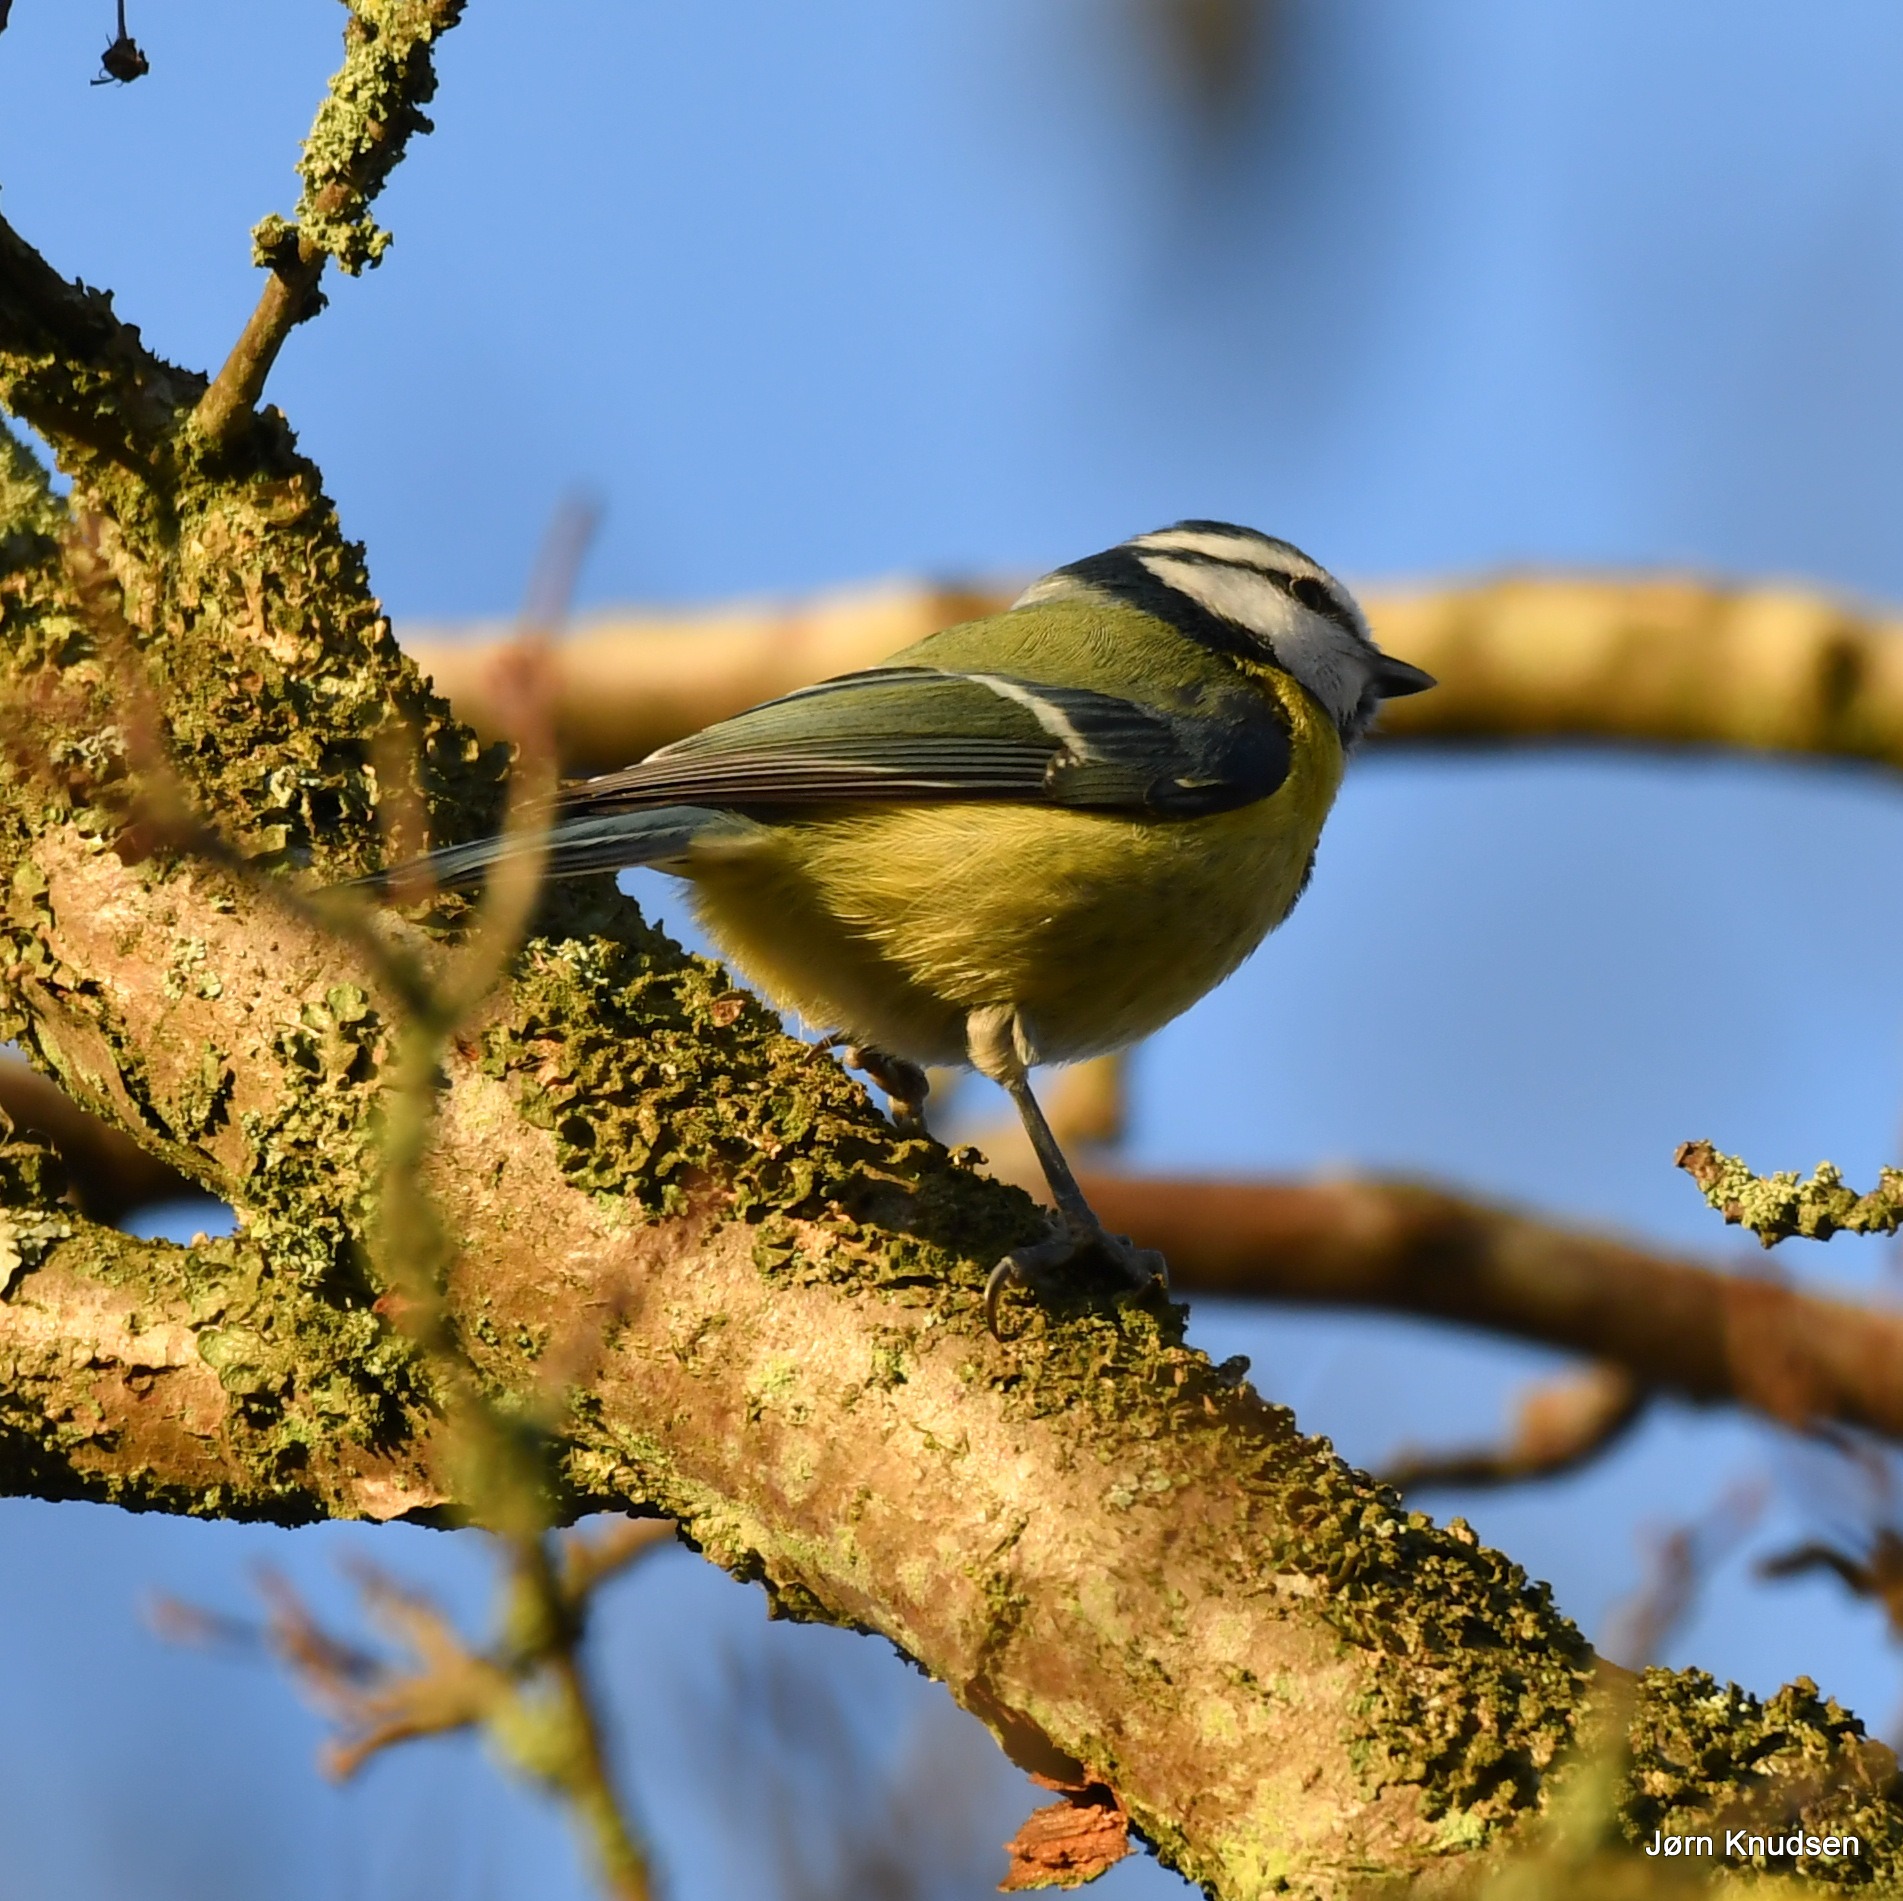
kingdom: Animalia
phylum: Chordata
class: Aves
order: Passeriformes
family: Paridae
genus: Cyanistes
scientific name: Cyanistes caeruleus
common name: Blåmejse
